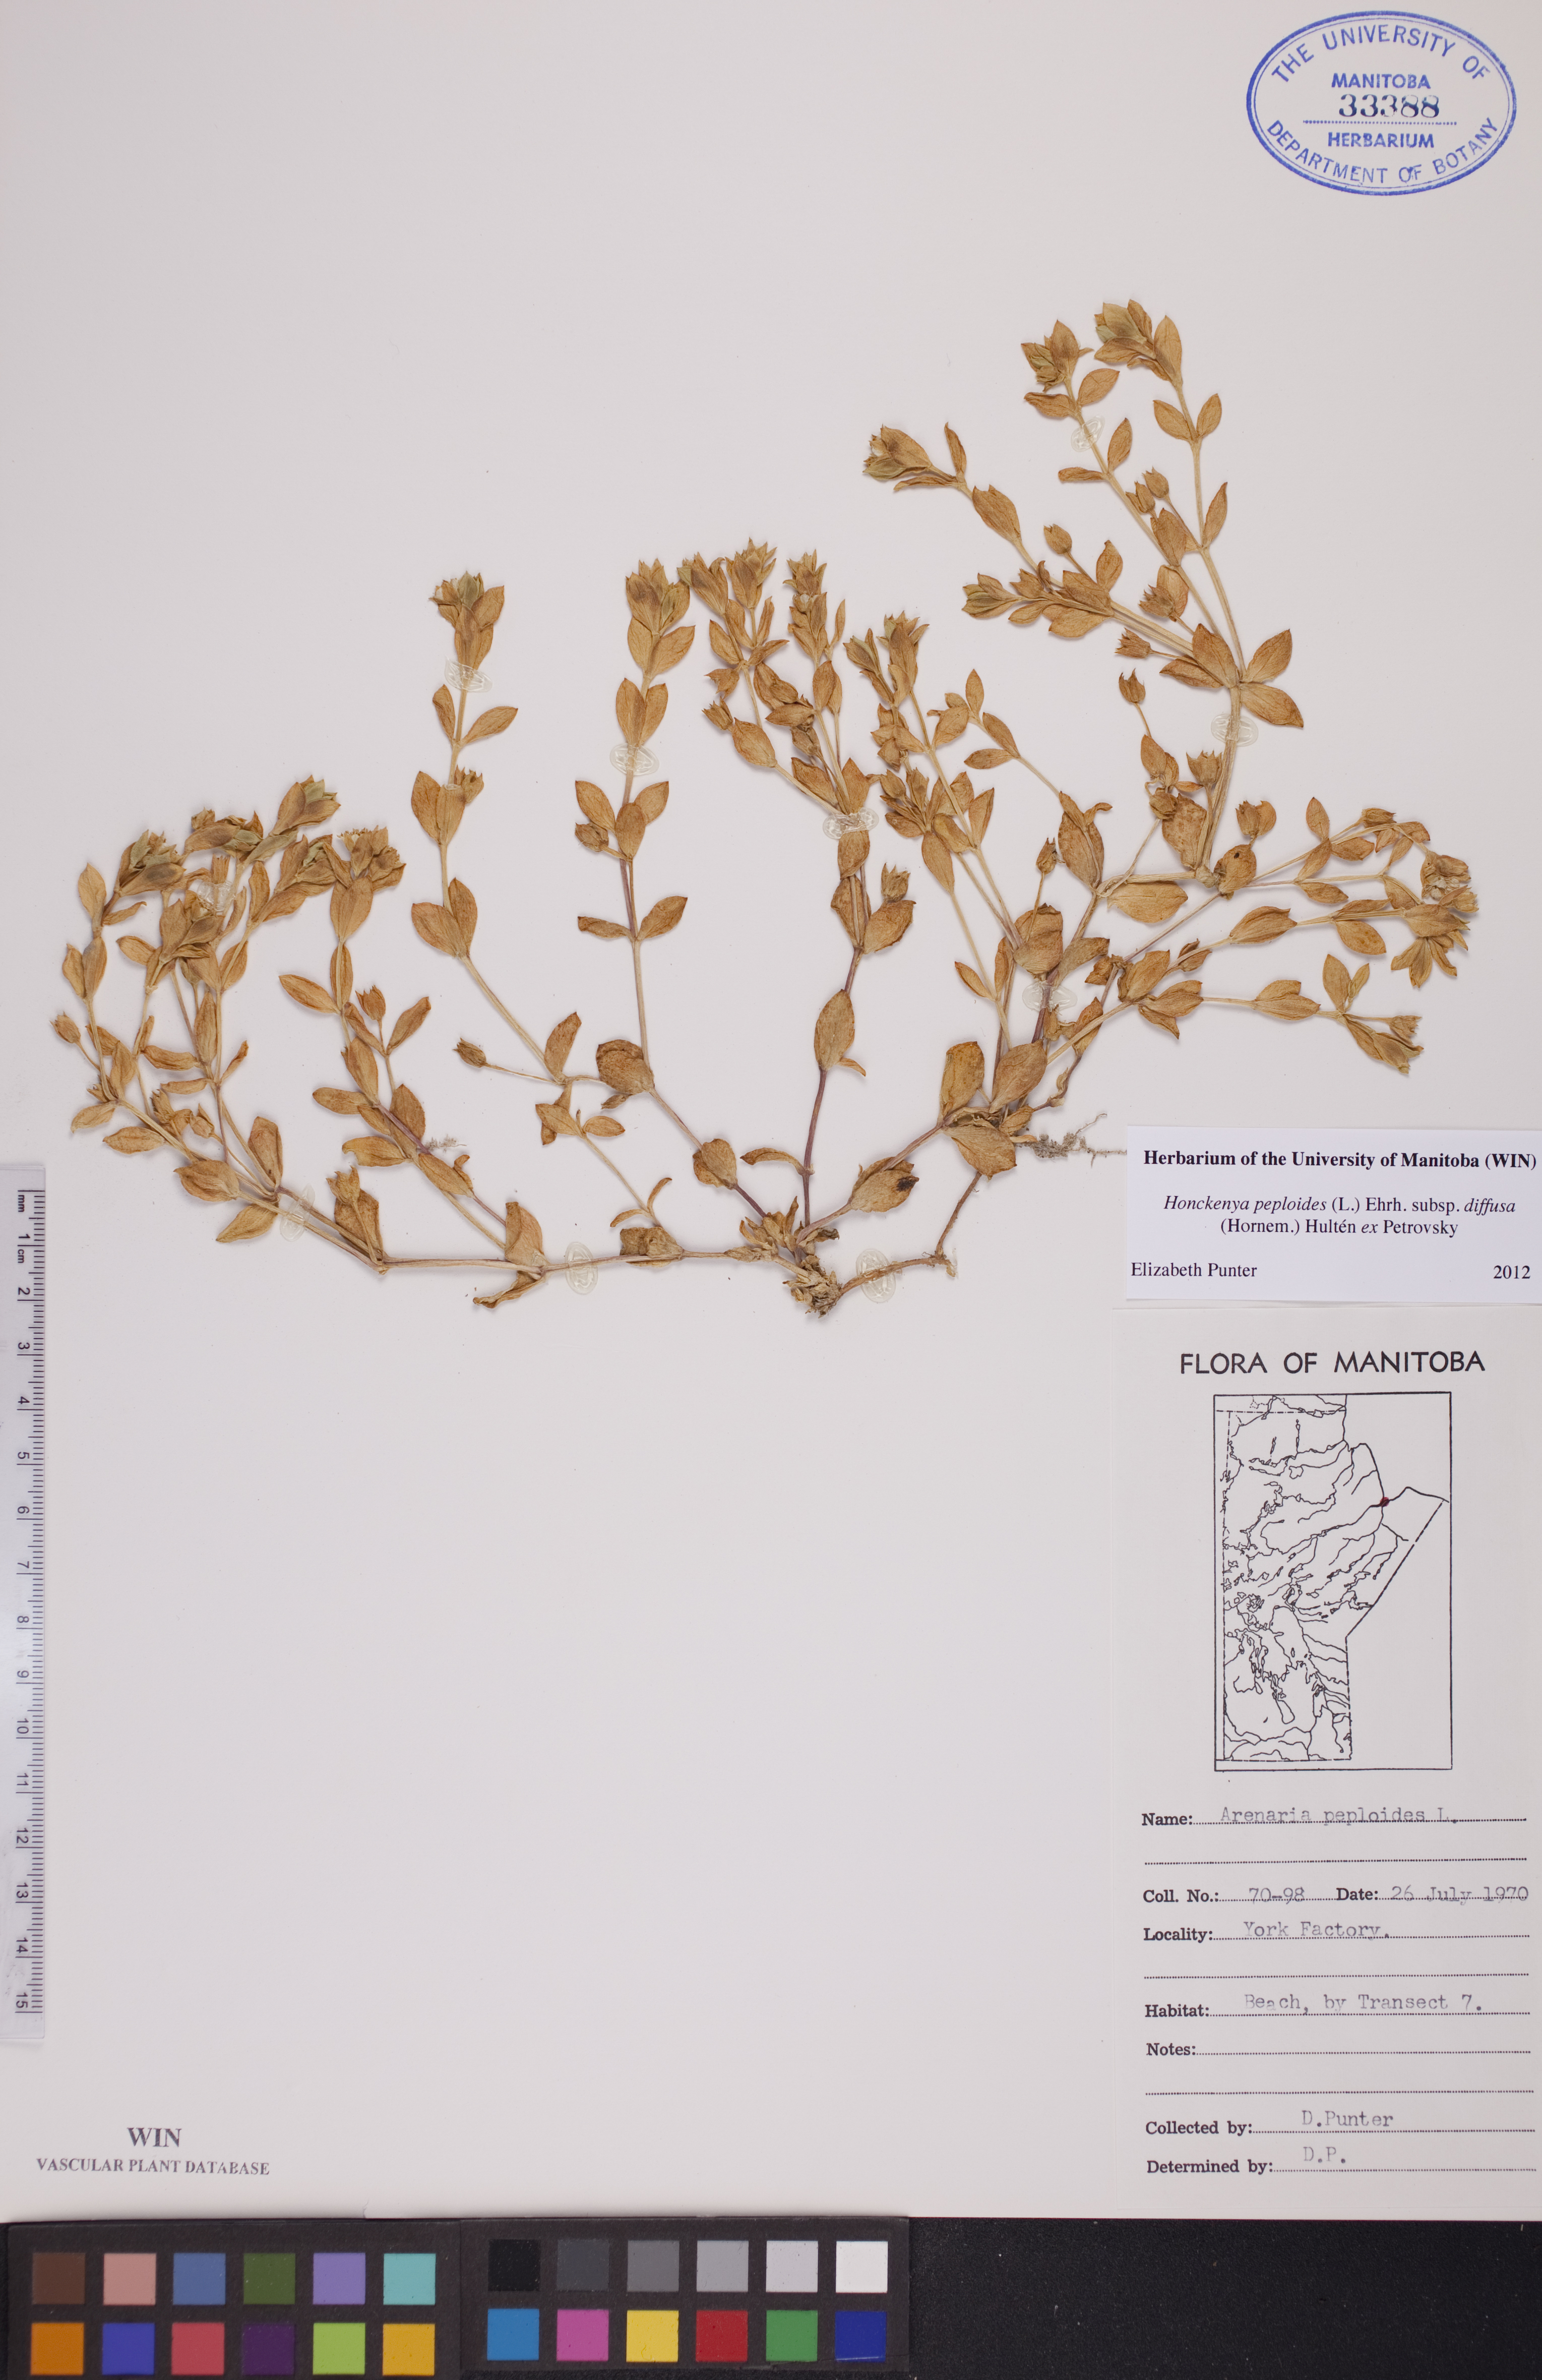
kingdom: Plantae
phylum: Tracheophyta
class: Magnoliopsida
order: Caryophyllales
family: Caryophyllaceae
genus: Honckenya
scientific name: Honckenya peploides
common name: Sea sandwort
